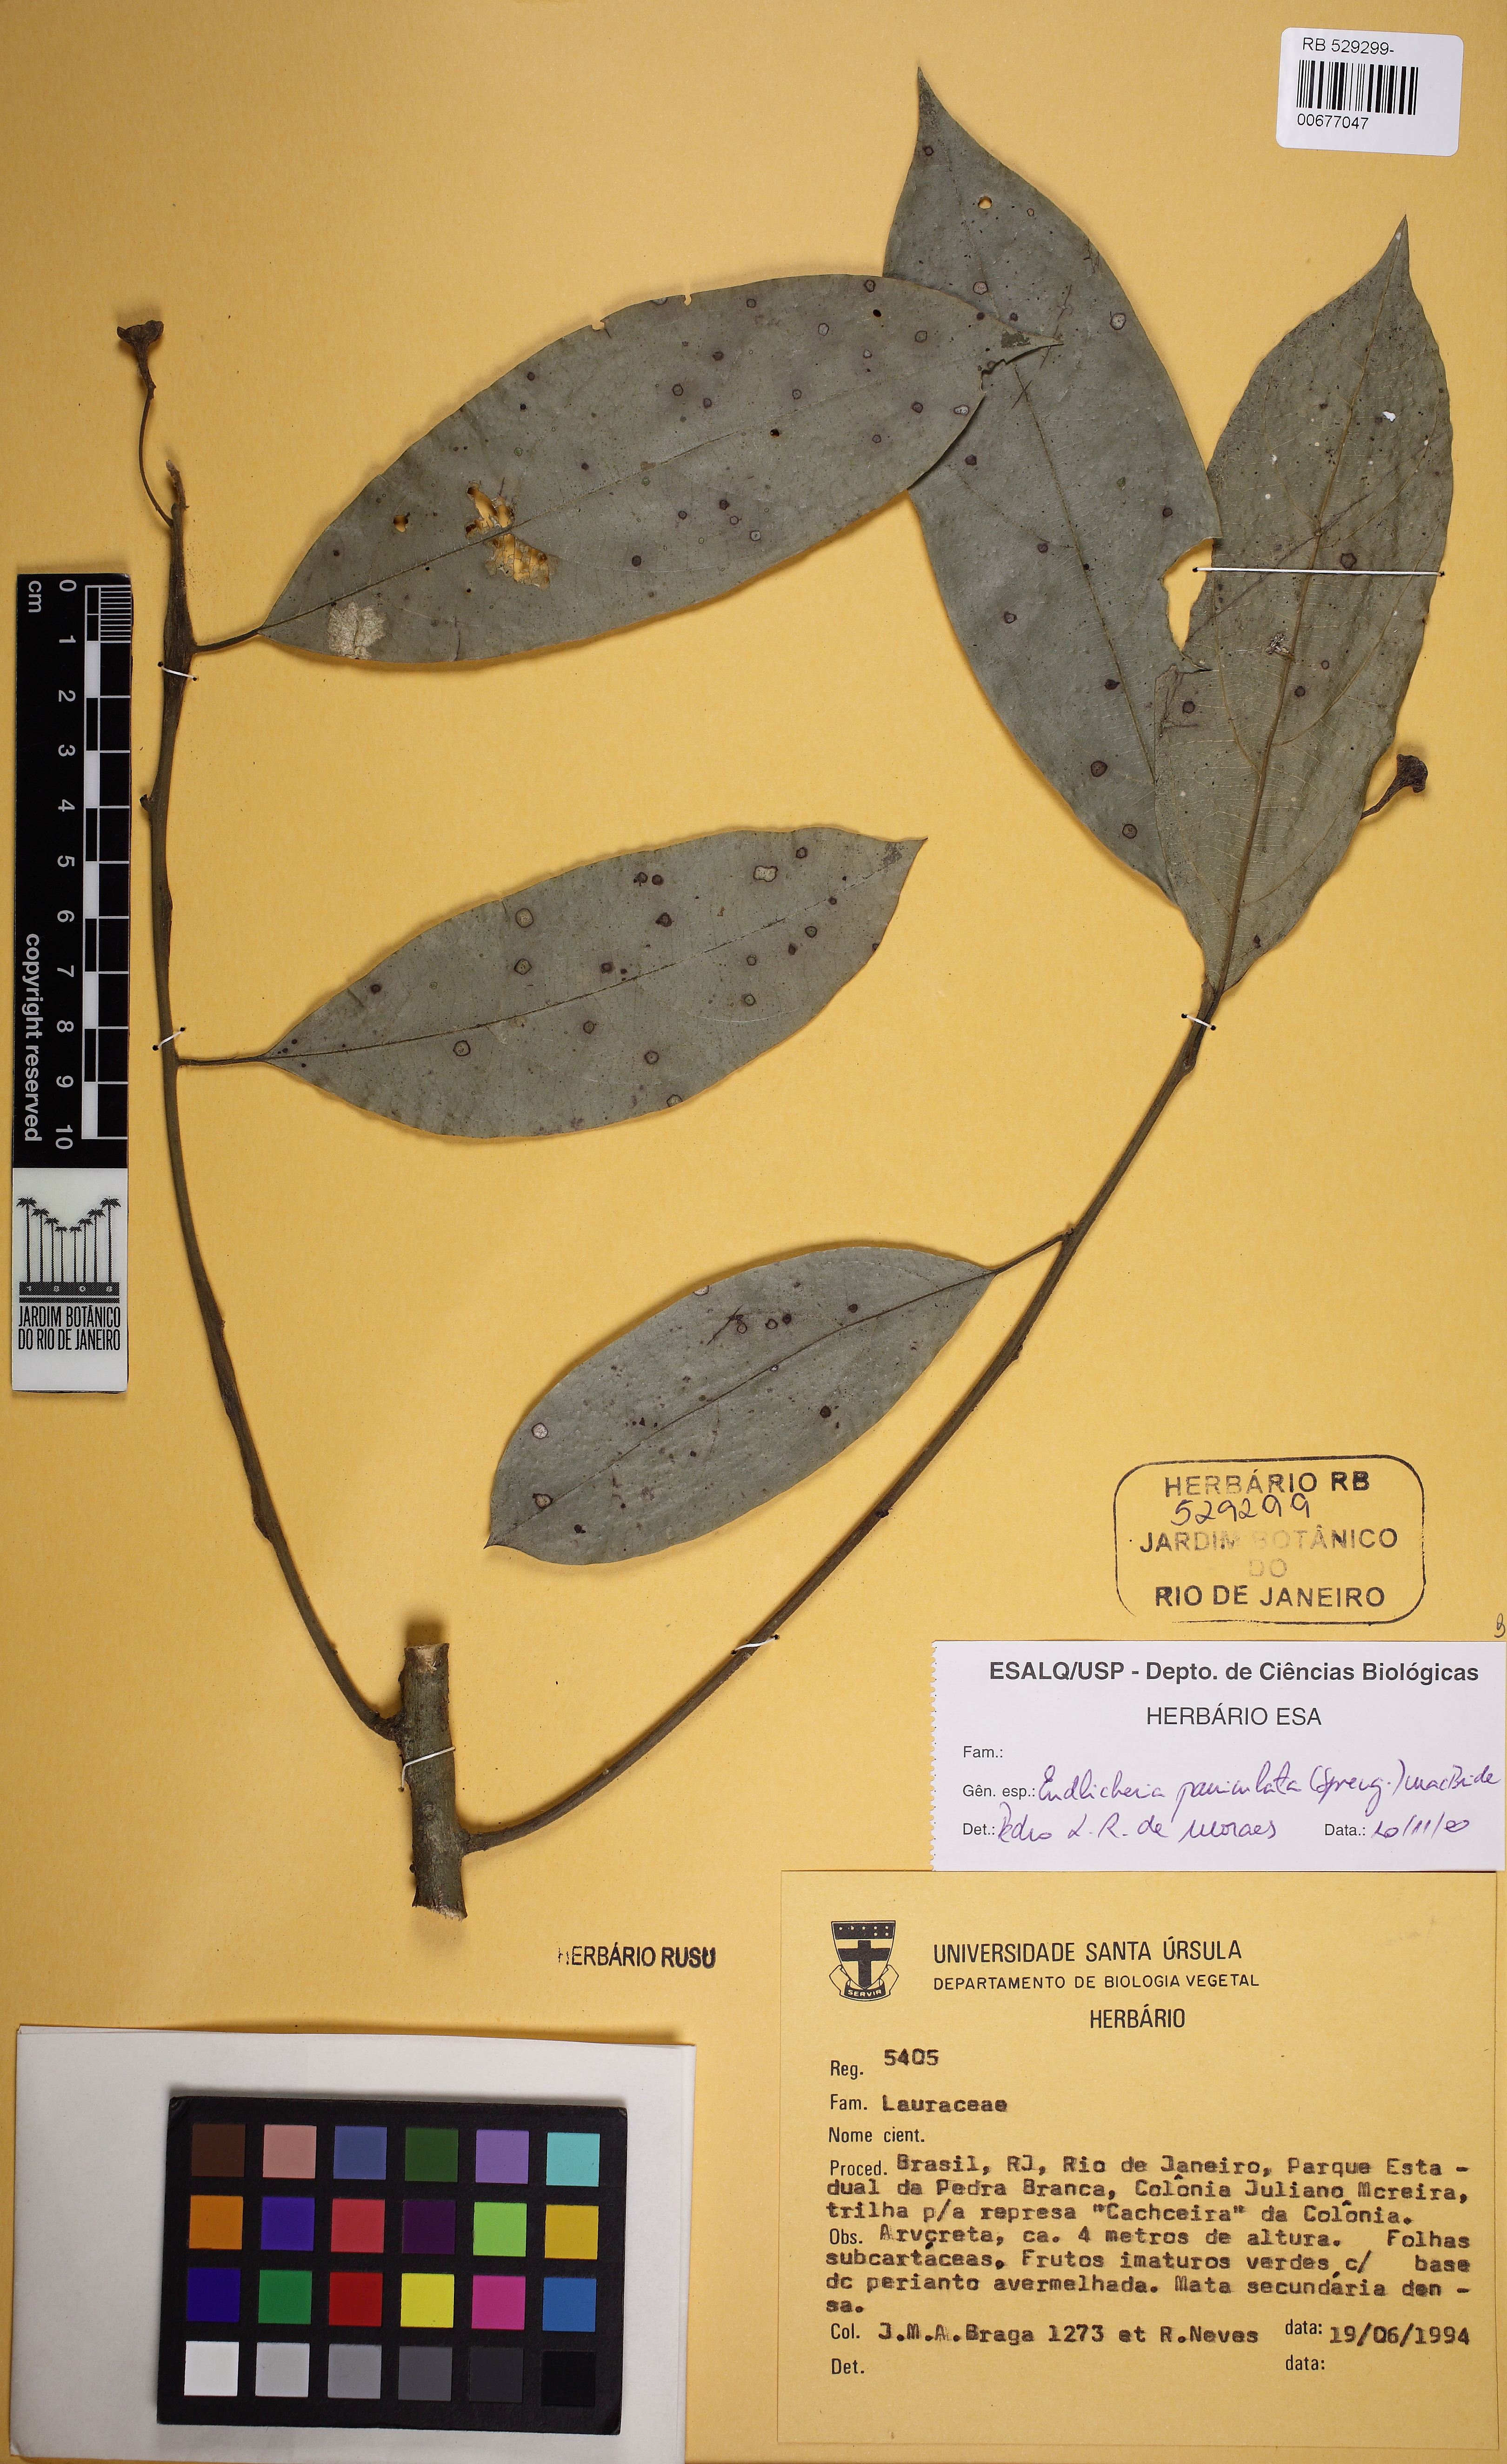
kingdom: Plantae
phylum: Tracheophyta
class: Magnoliopsida
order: Laurales
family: Lauraceae
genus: Endlicheria
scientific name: Endlicheria paniculata
